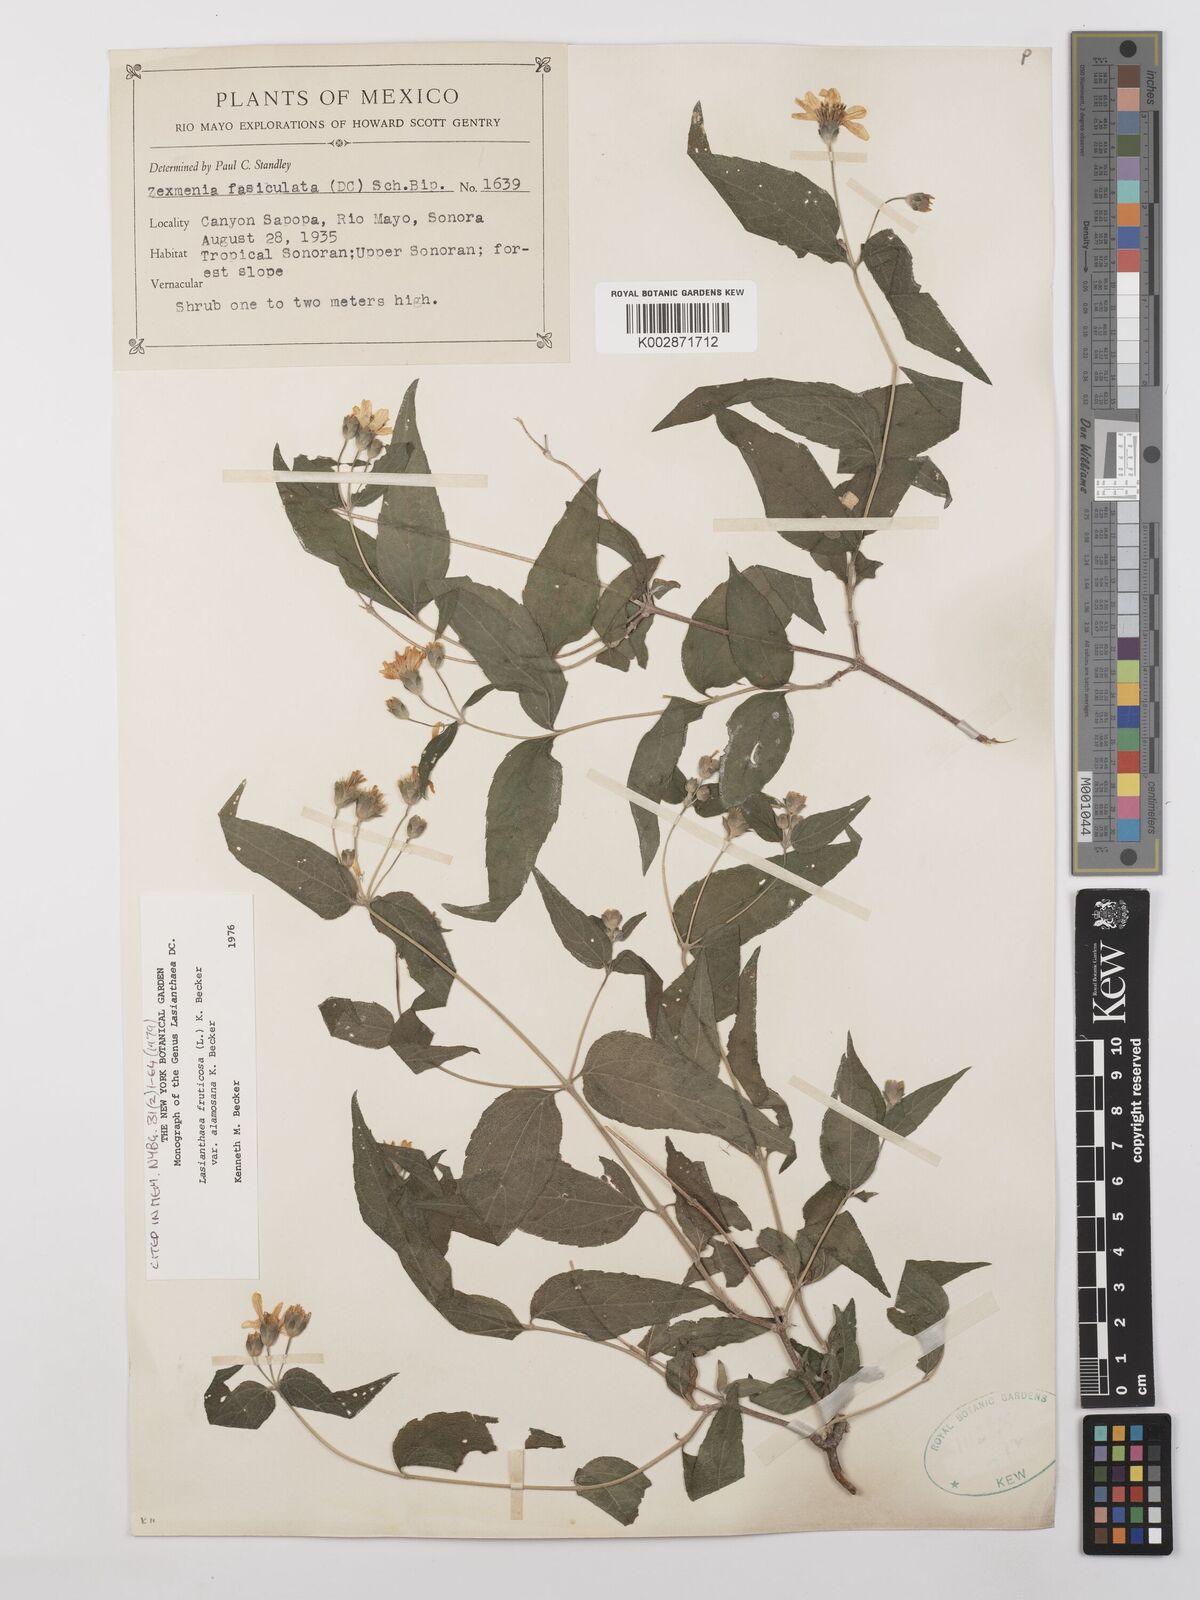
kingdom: Plantae
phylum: Tracheophyta
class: Magnoliopsida
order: Asterales
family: Asteraceae
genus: Lasianthaea
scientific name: Lasianthaea fruticosa
